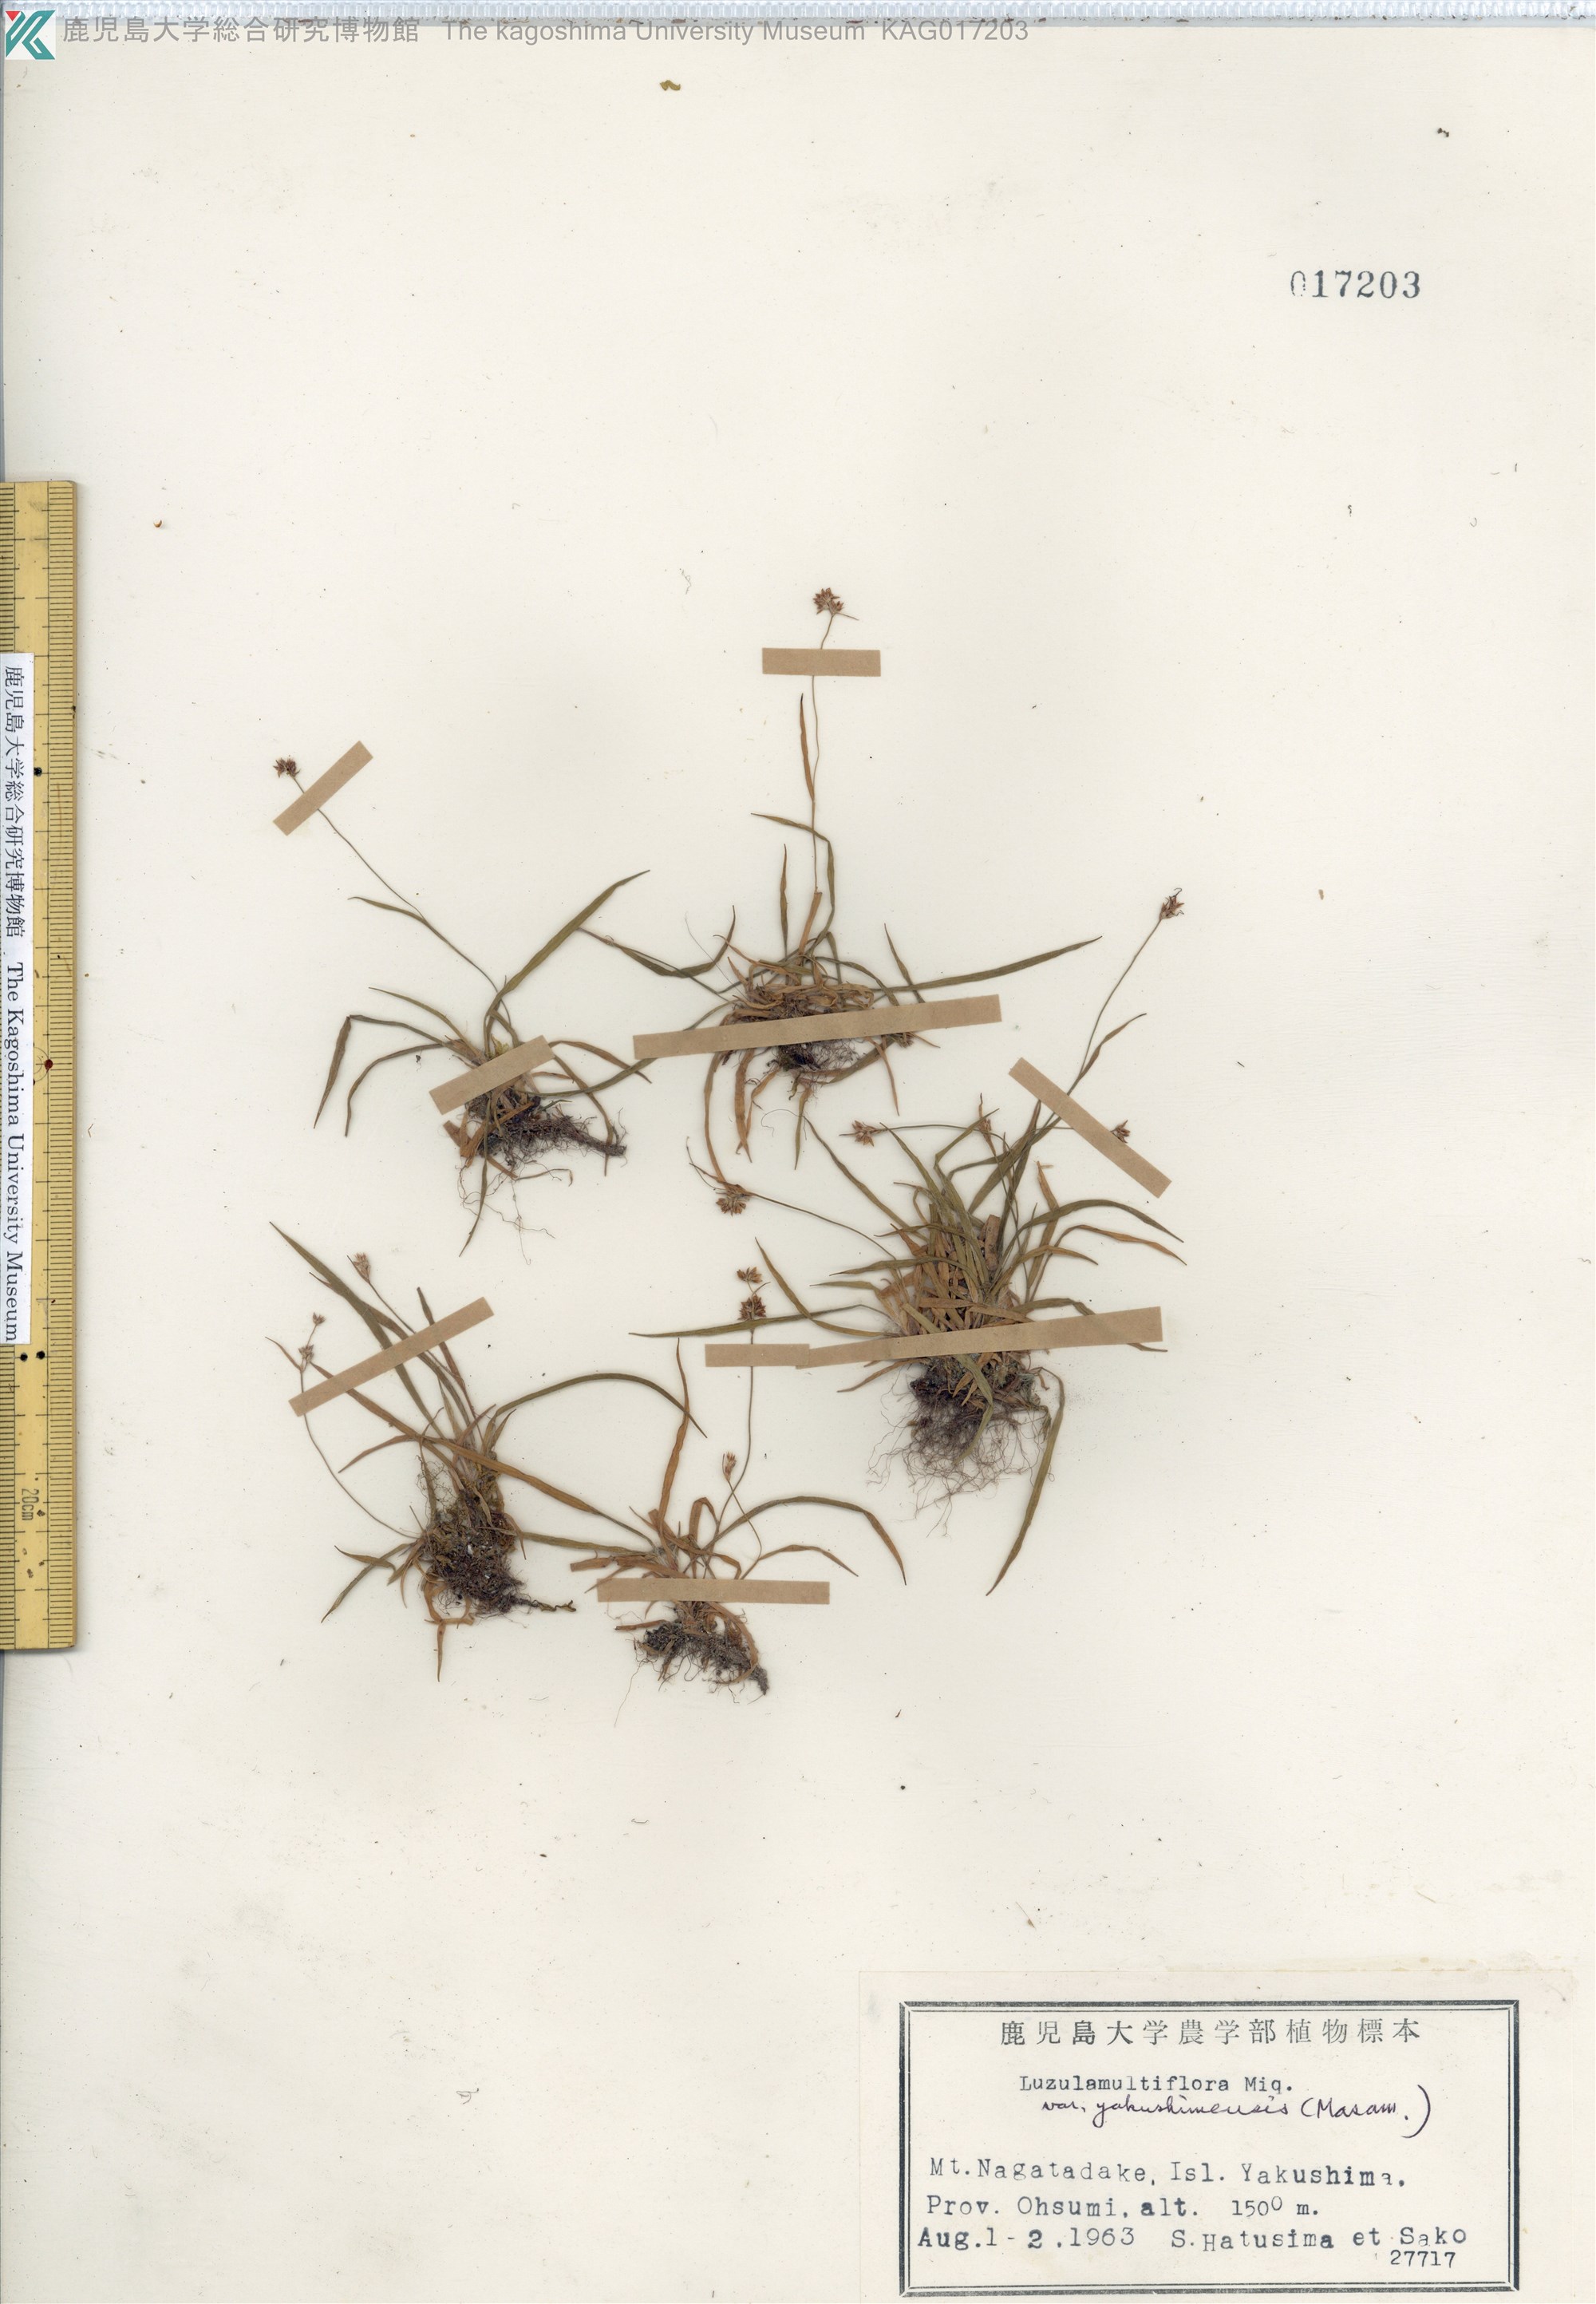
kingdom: Plantae
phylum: Tracheophyta
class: Liliopsida
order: Poales
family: Juncaceae
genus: Luzula
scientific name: Luzula multiflora
